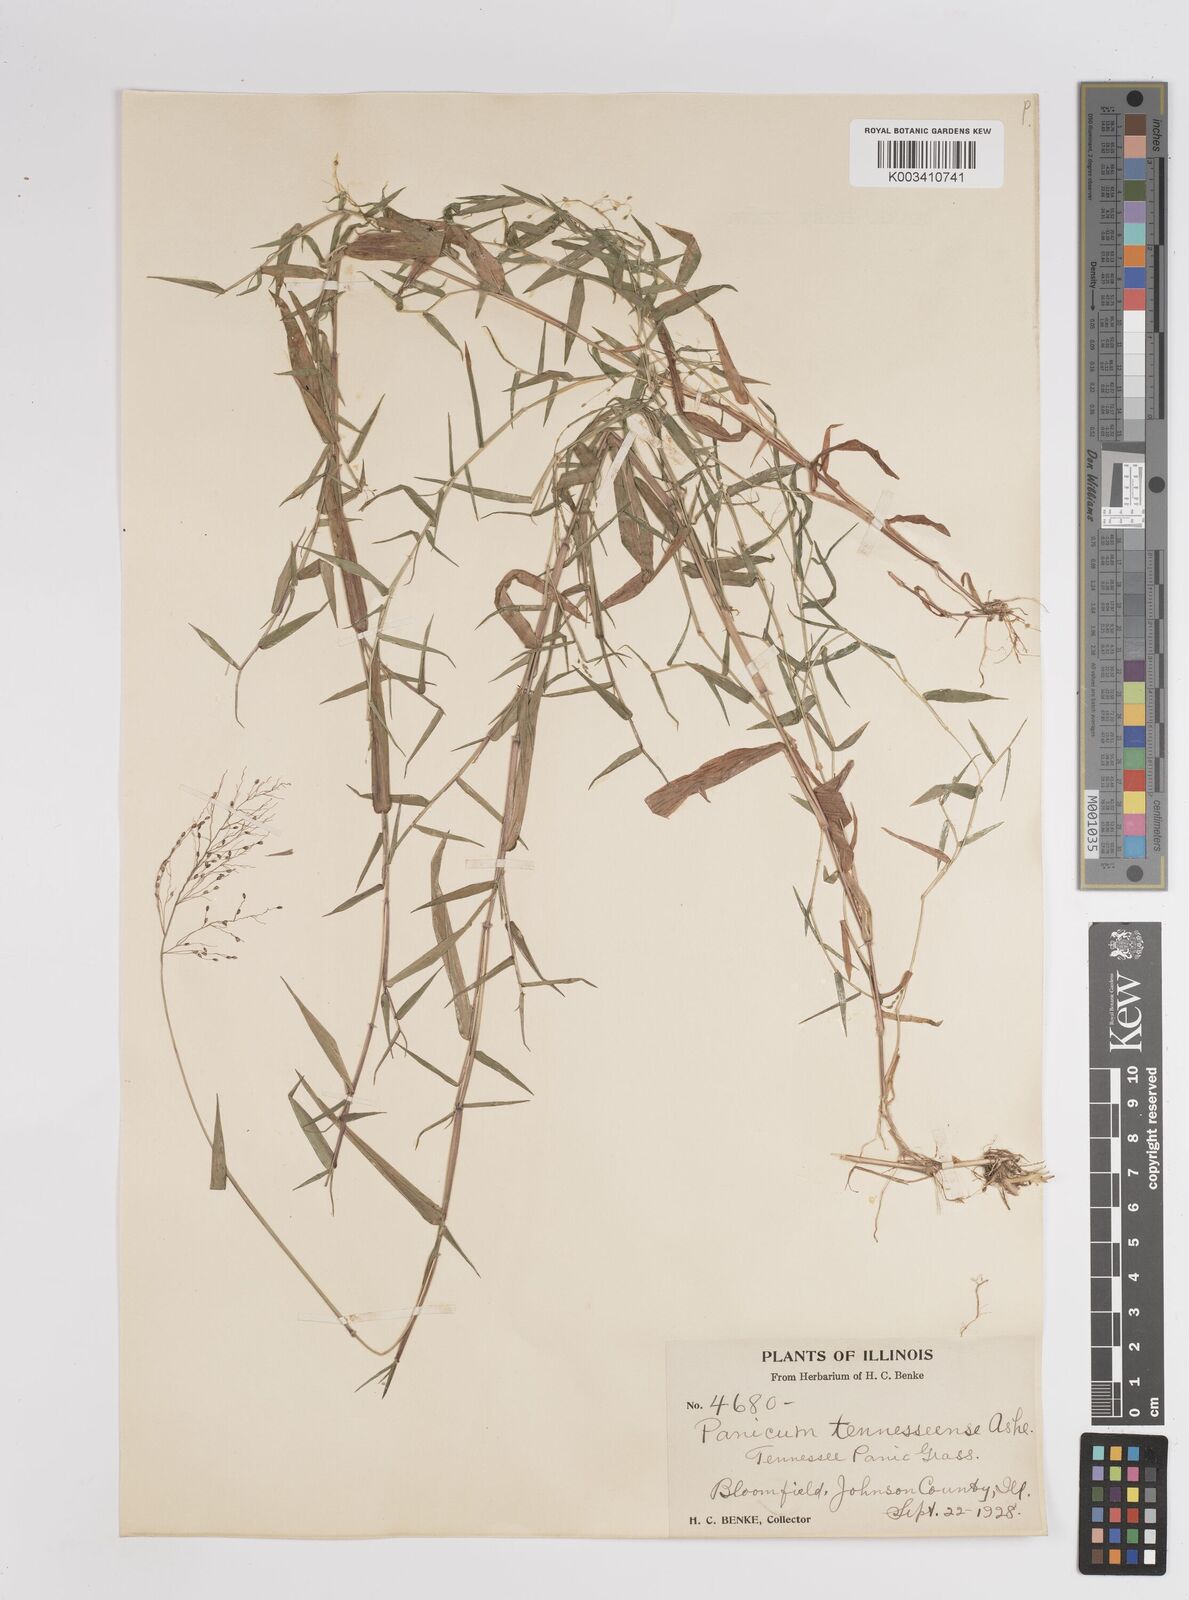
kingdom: Plantae
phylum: Tracheophyta
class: Liliopsida
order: Poales
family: Poaceae
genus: Dichanthelium
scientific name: Dichanthelium acuminatum
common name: Hairy panic grass
